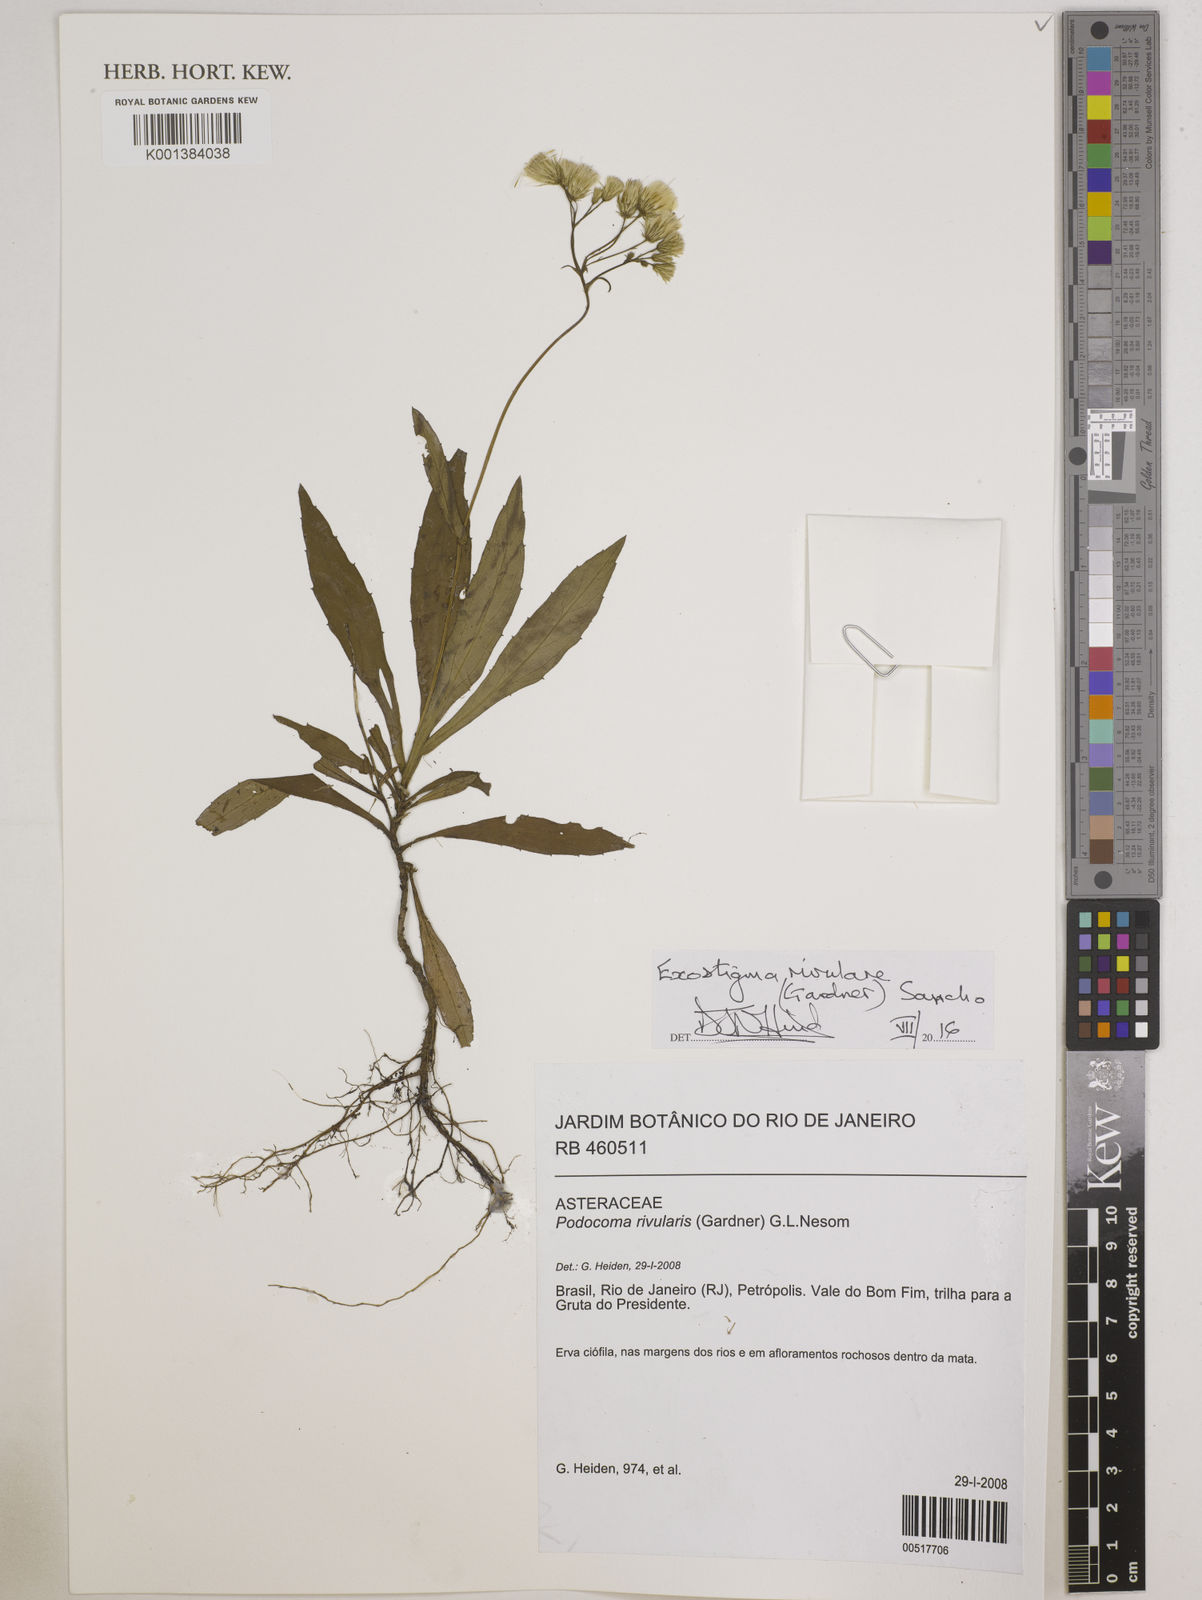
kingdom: Plantae
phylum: Tracheophyta
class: Magnoliopsida
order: Asterales
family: Asteraceae
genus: Exostigma
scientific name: Exostigma rivulare
